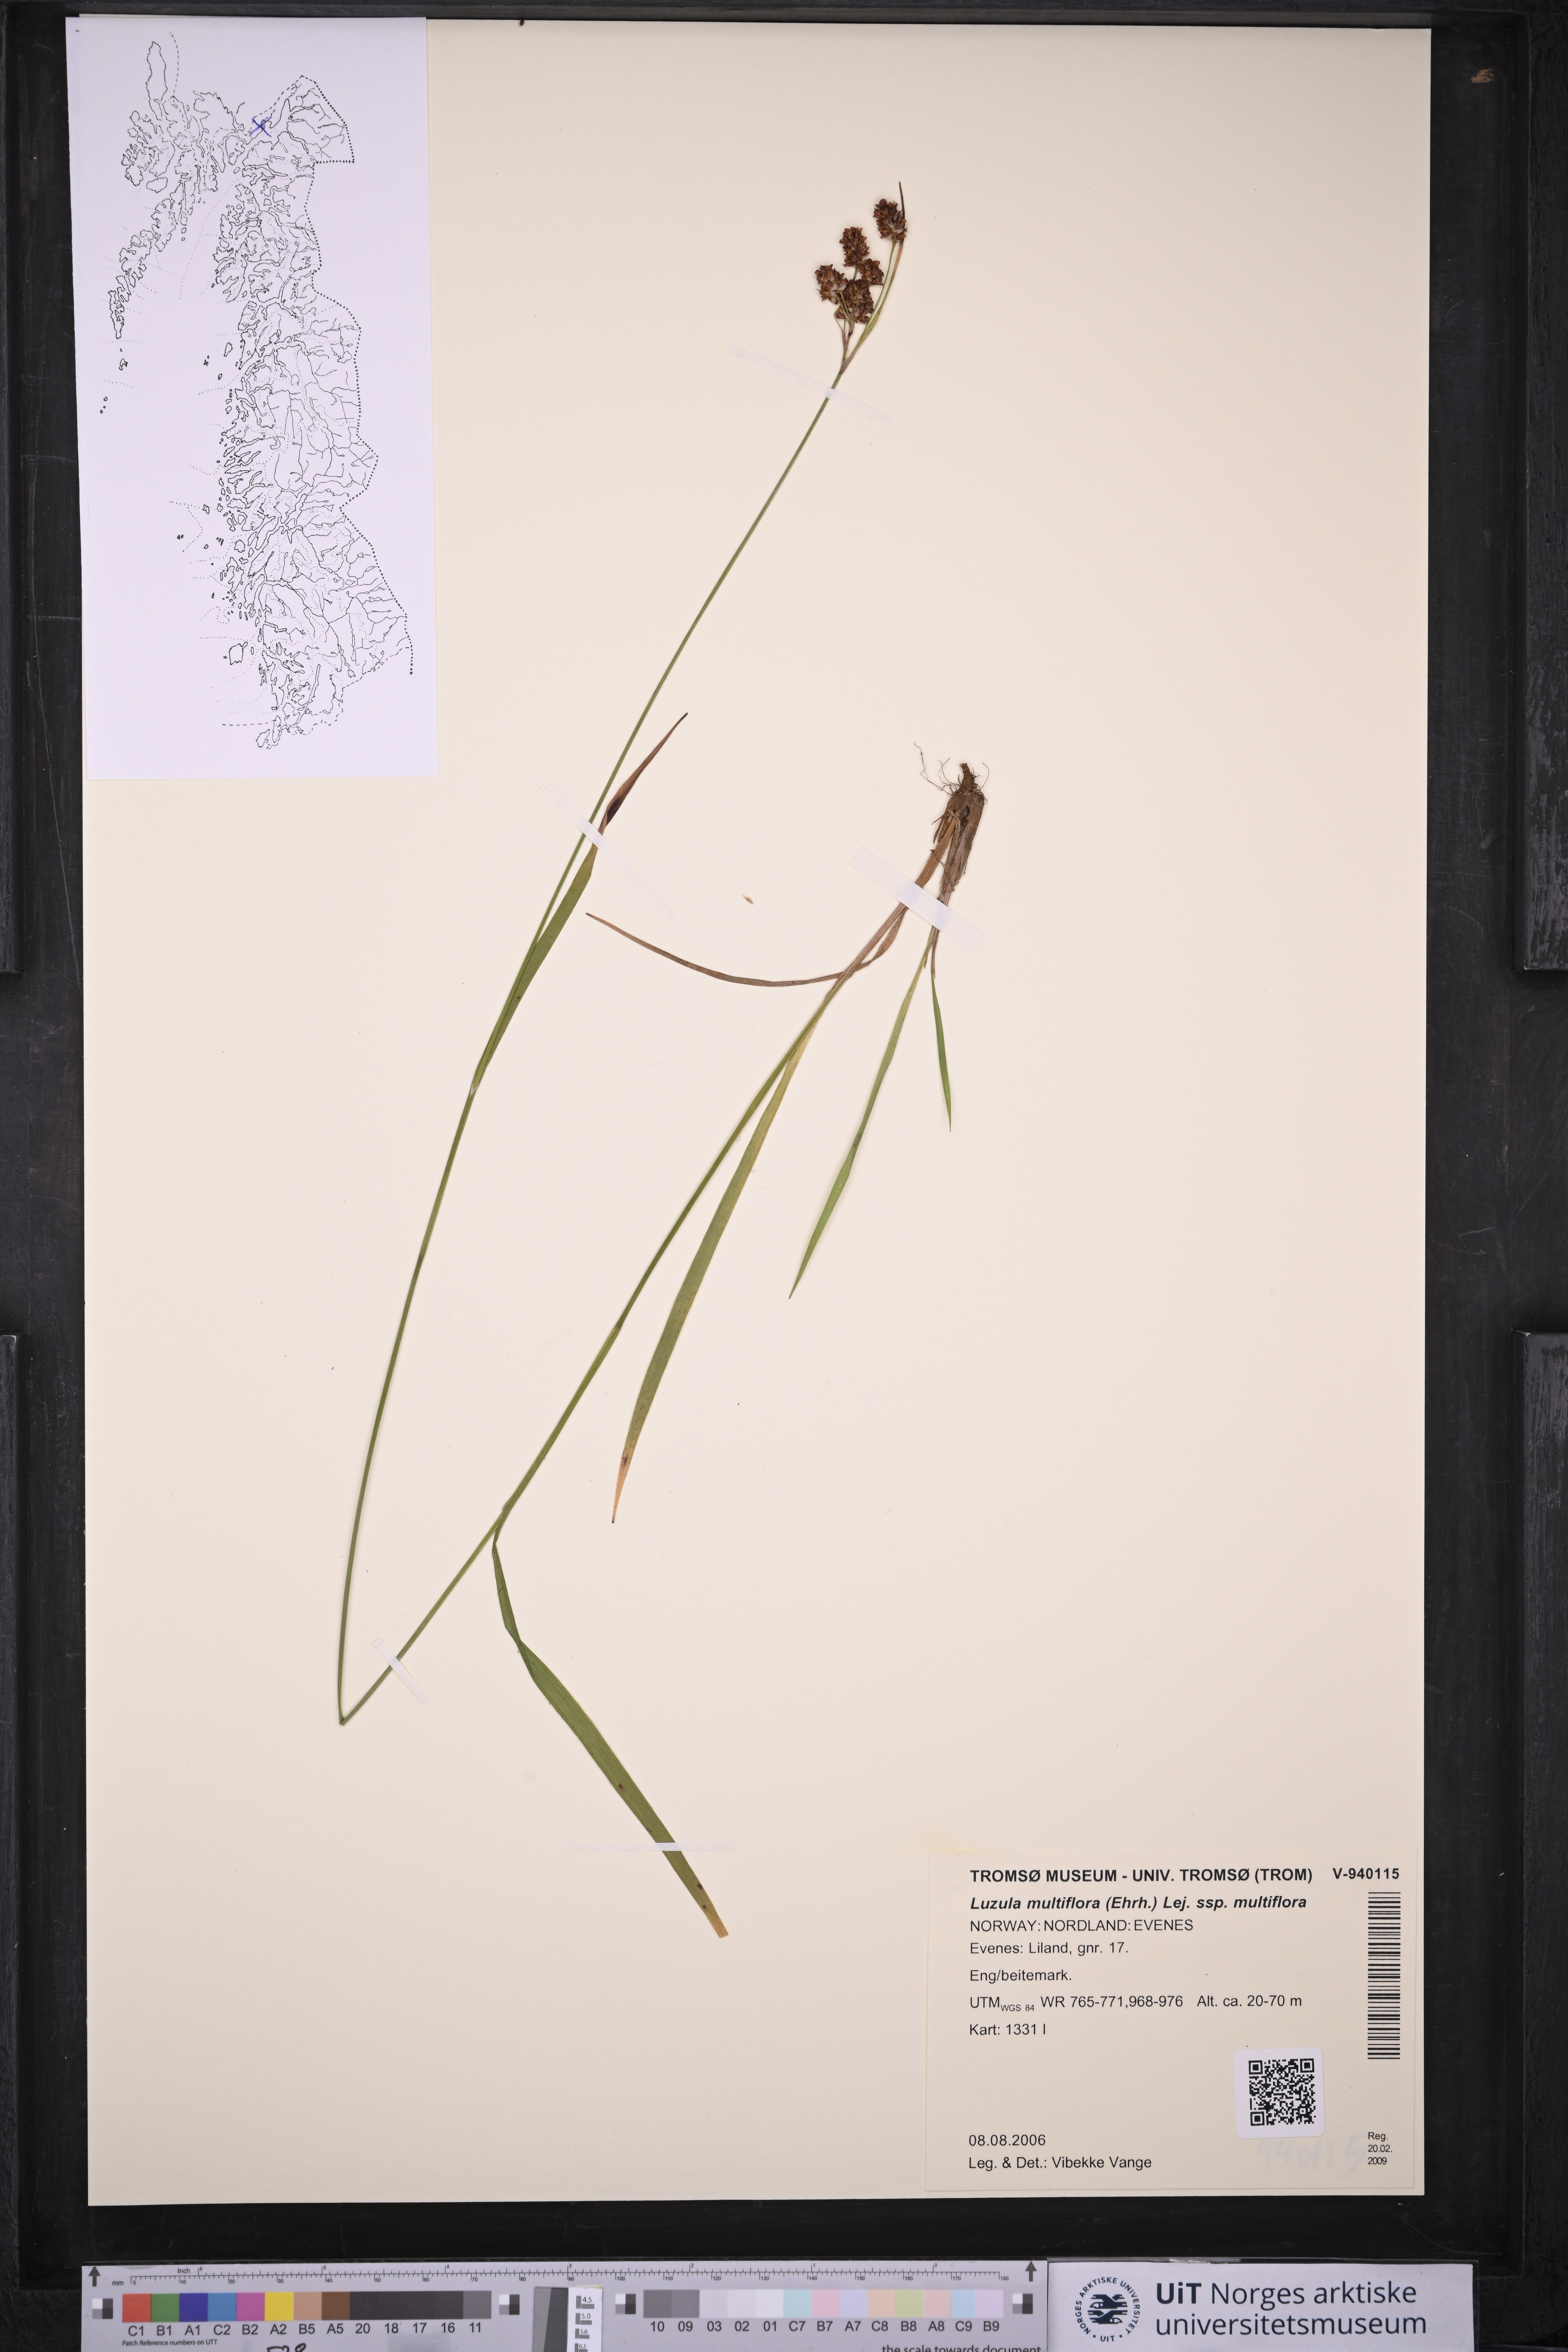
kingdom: Plantae
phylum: Tracheophyta
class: Liliopsida
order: Poales
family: Juncaceae
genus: Luzula
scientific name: Luzula multiflora
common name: Heath wood-rush
